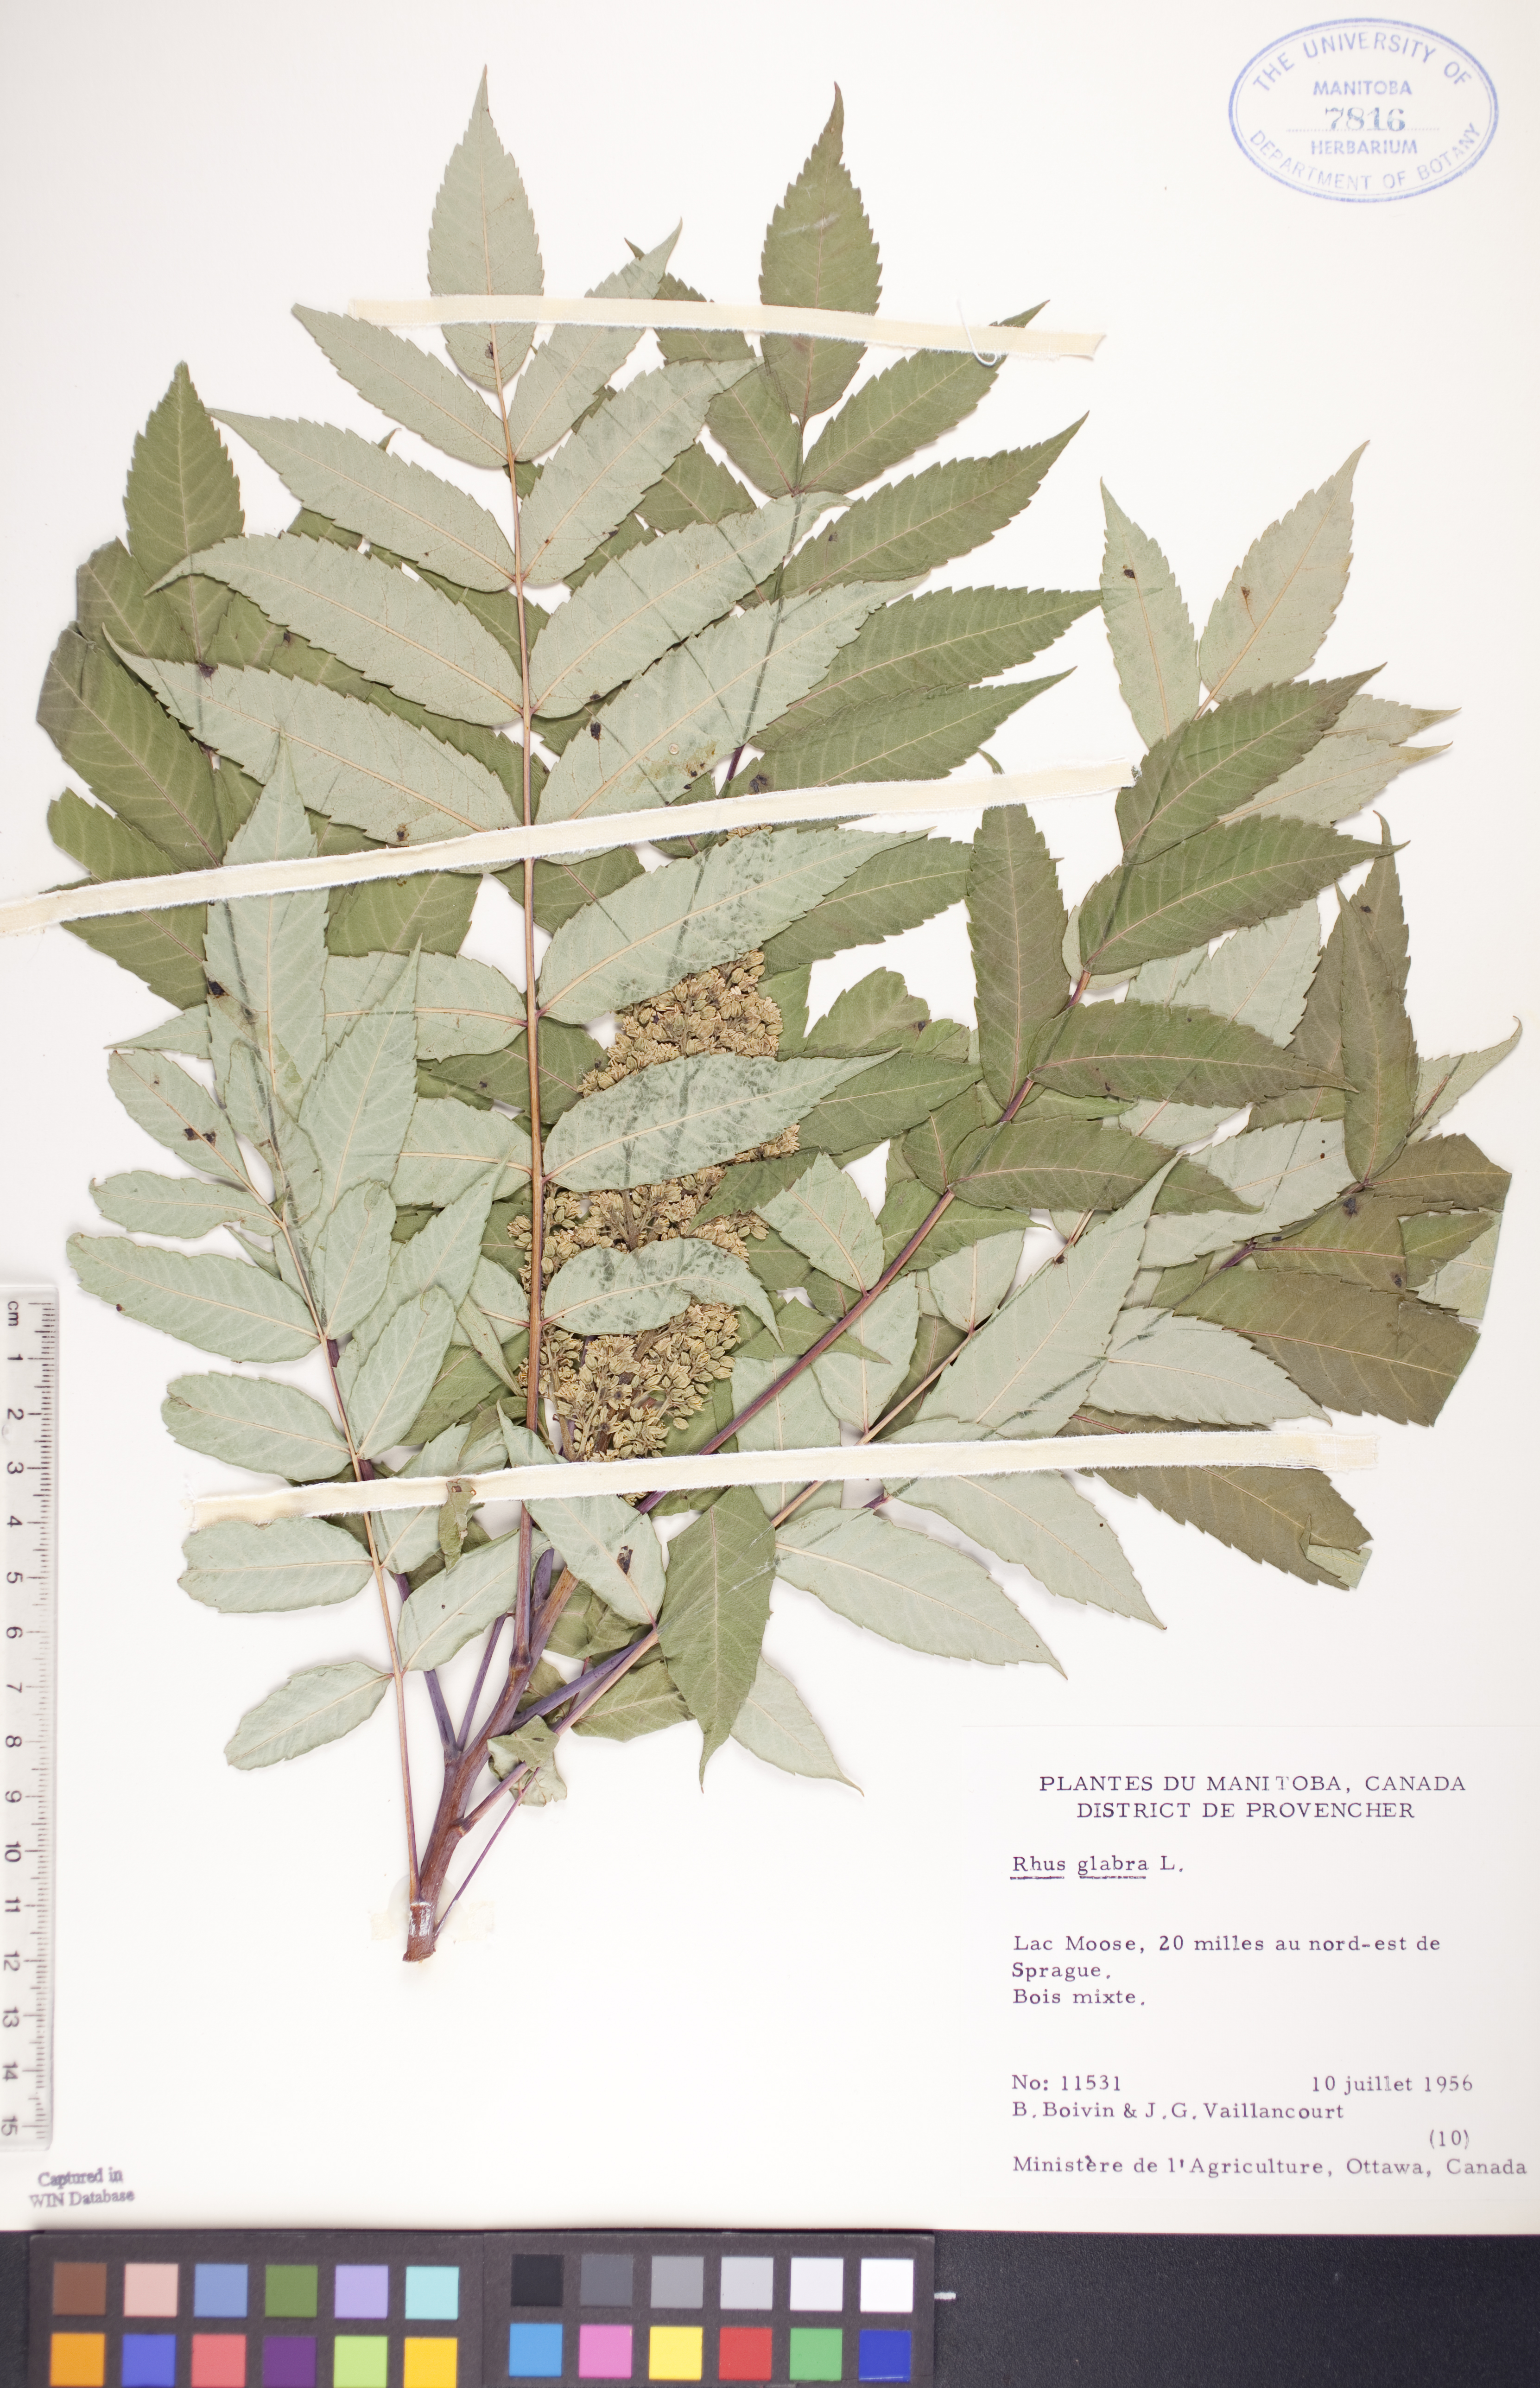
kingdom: Plantae
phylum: Tracheophyta
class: Magnoliopsida
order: Sapindales
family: Anacardiaceae
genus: Rhus
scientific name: Rhus glabra
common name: Scarlet sumac
